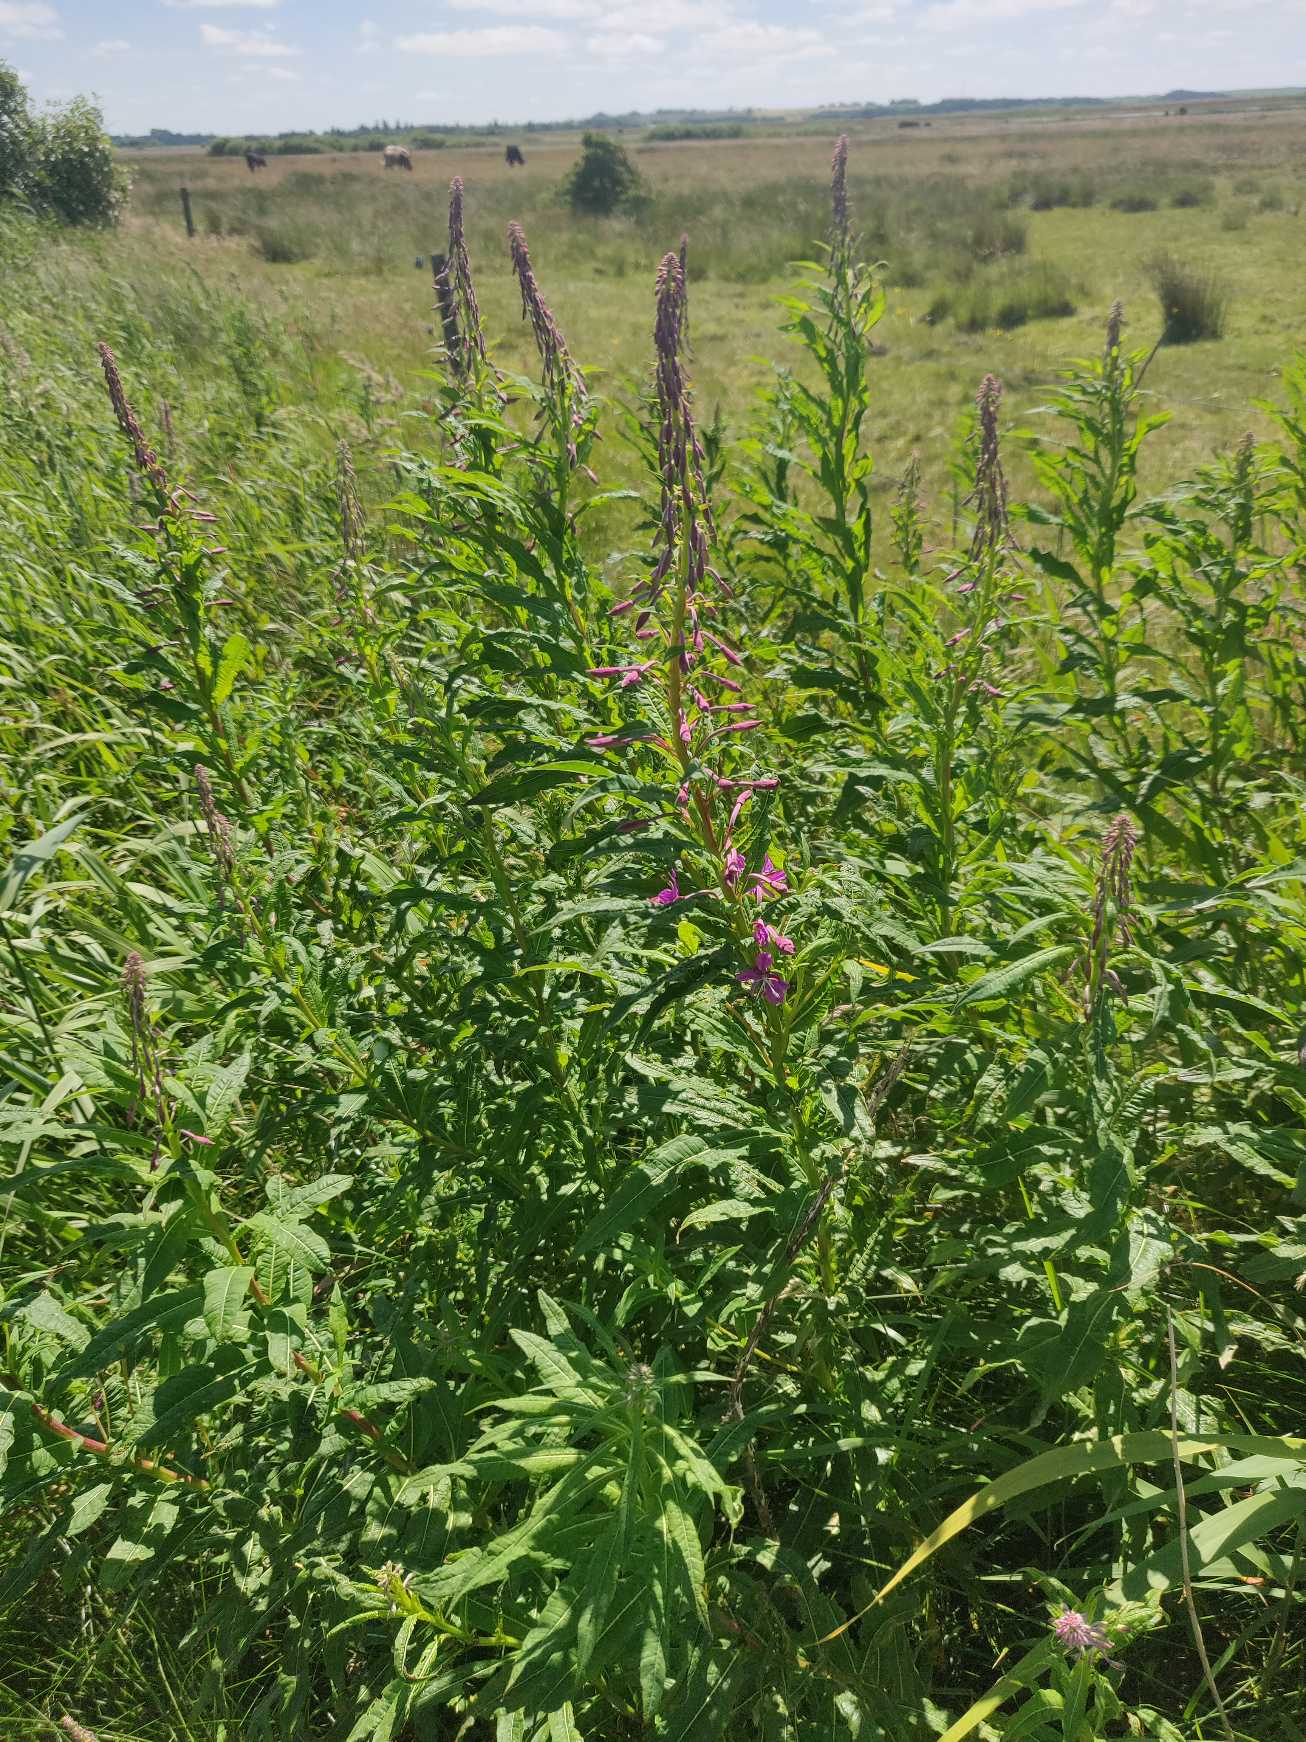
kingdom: Plantae
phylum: Tracheophyta
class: Magnoliopsida
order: Myrtales
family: Onagraceae
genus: Chamaenerion
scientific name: Chamaenerion angustifolium
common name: Gederams
